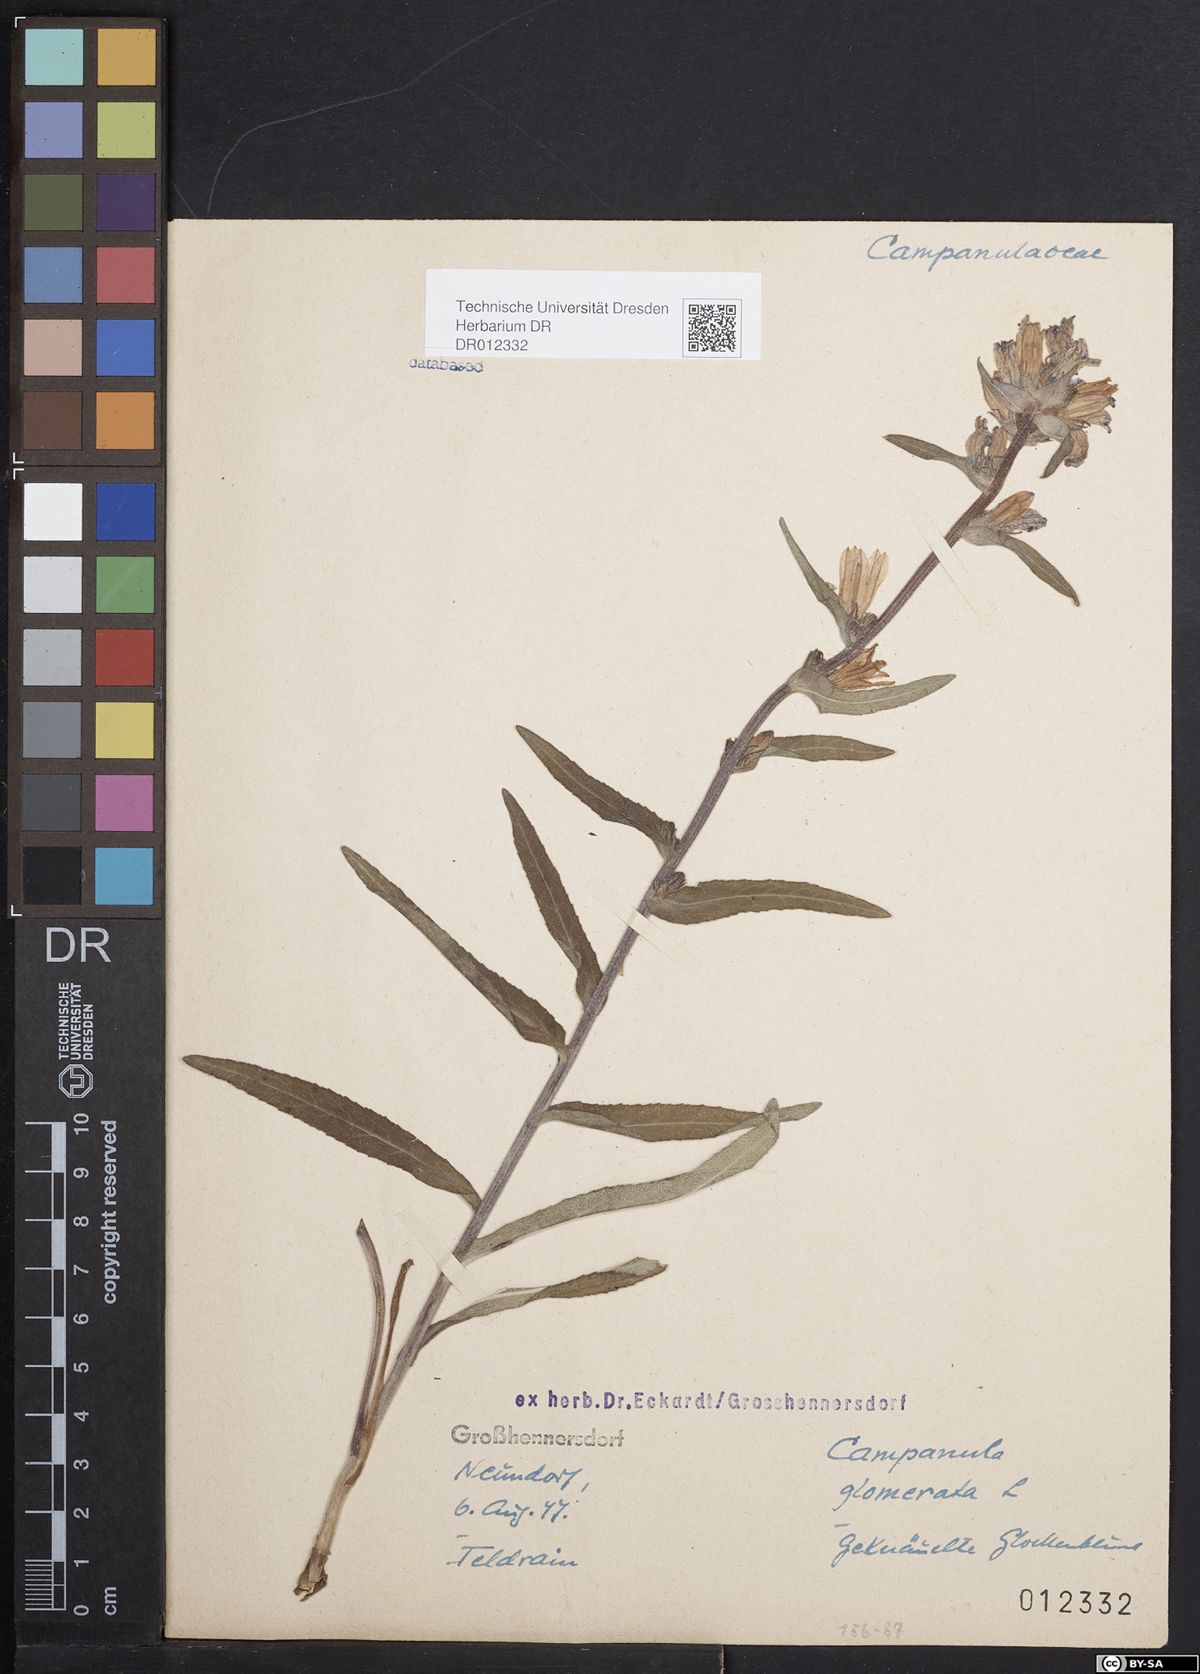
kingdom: Plantae
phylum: Tracheophyta
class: Magnoliopsida
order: Asterales
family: Campanulaceae
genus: Campanula
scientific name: Campanula glomerata
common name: Clustered bellflower
